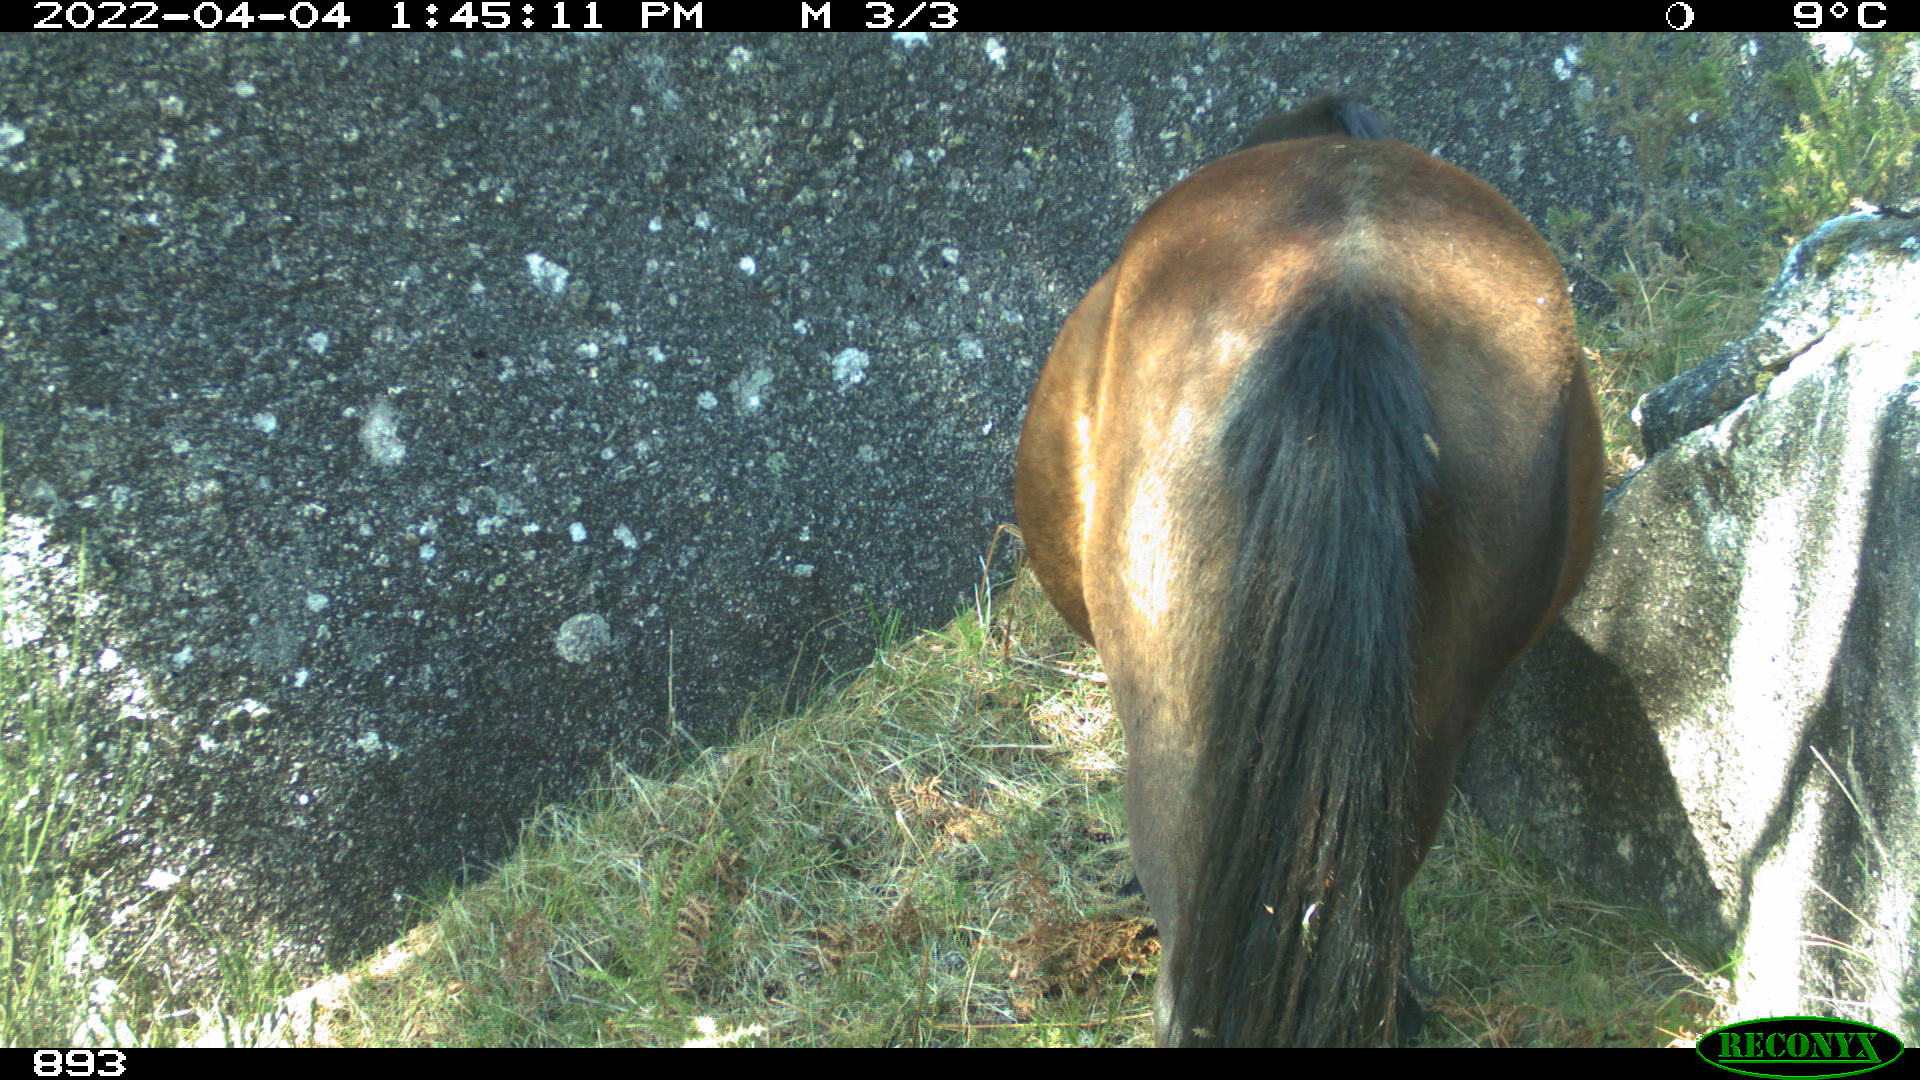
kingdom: Animalia
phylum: Chordata
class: Mammalia
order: Perissodactyla
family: Equidae
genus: Equus
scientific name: Equus caballus
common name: Horse
